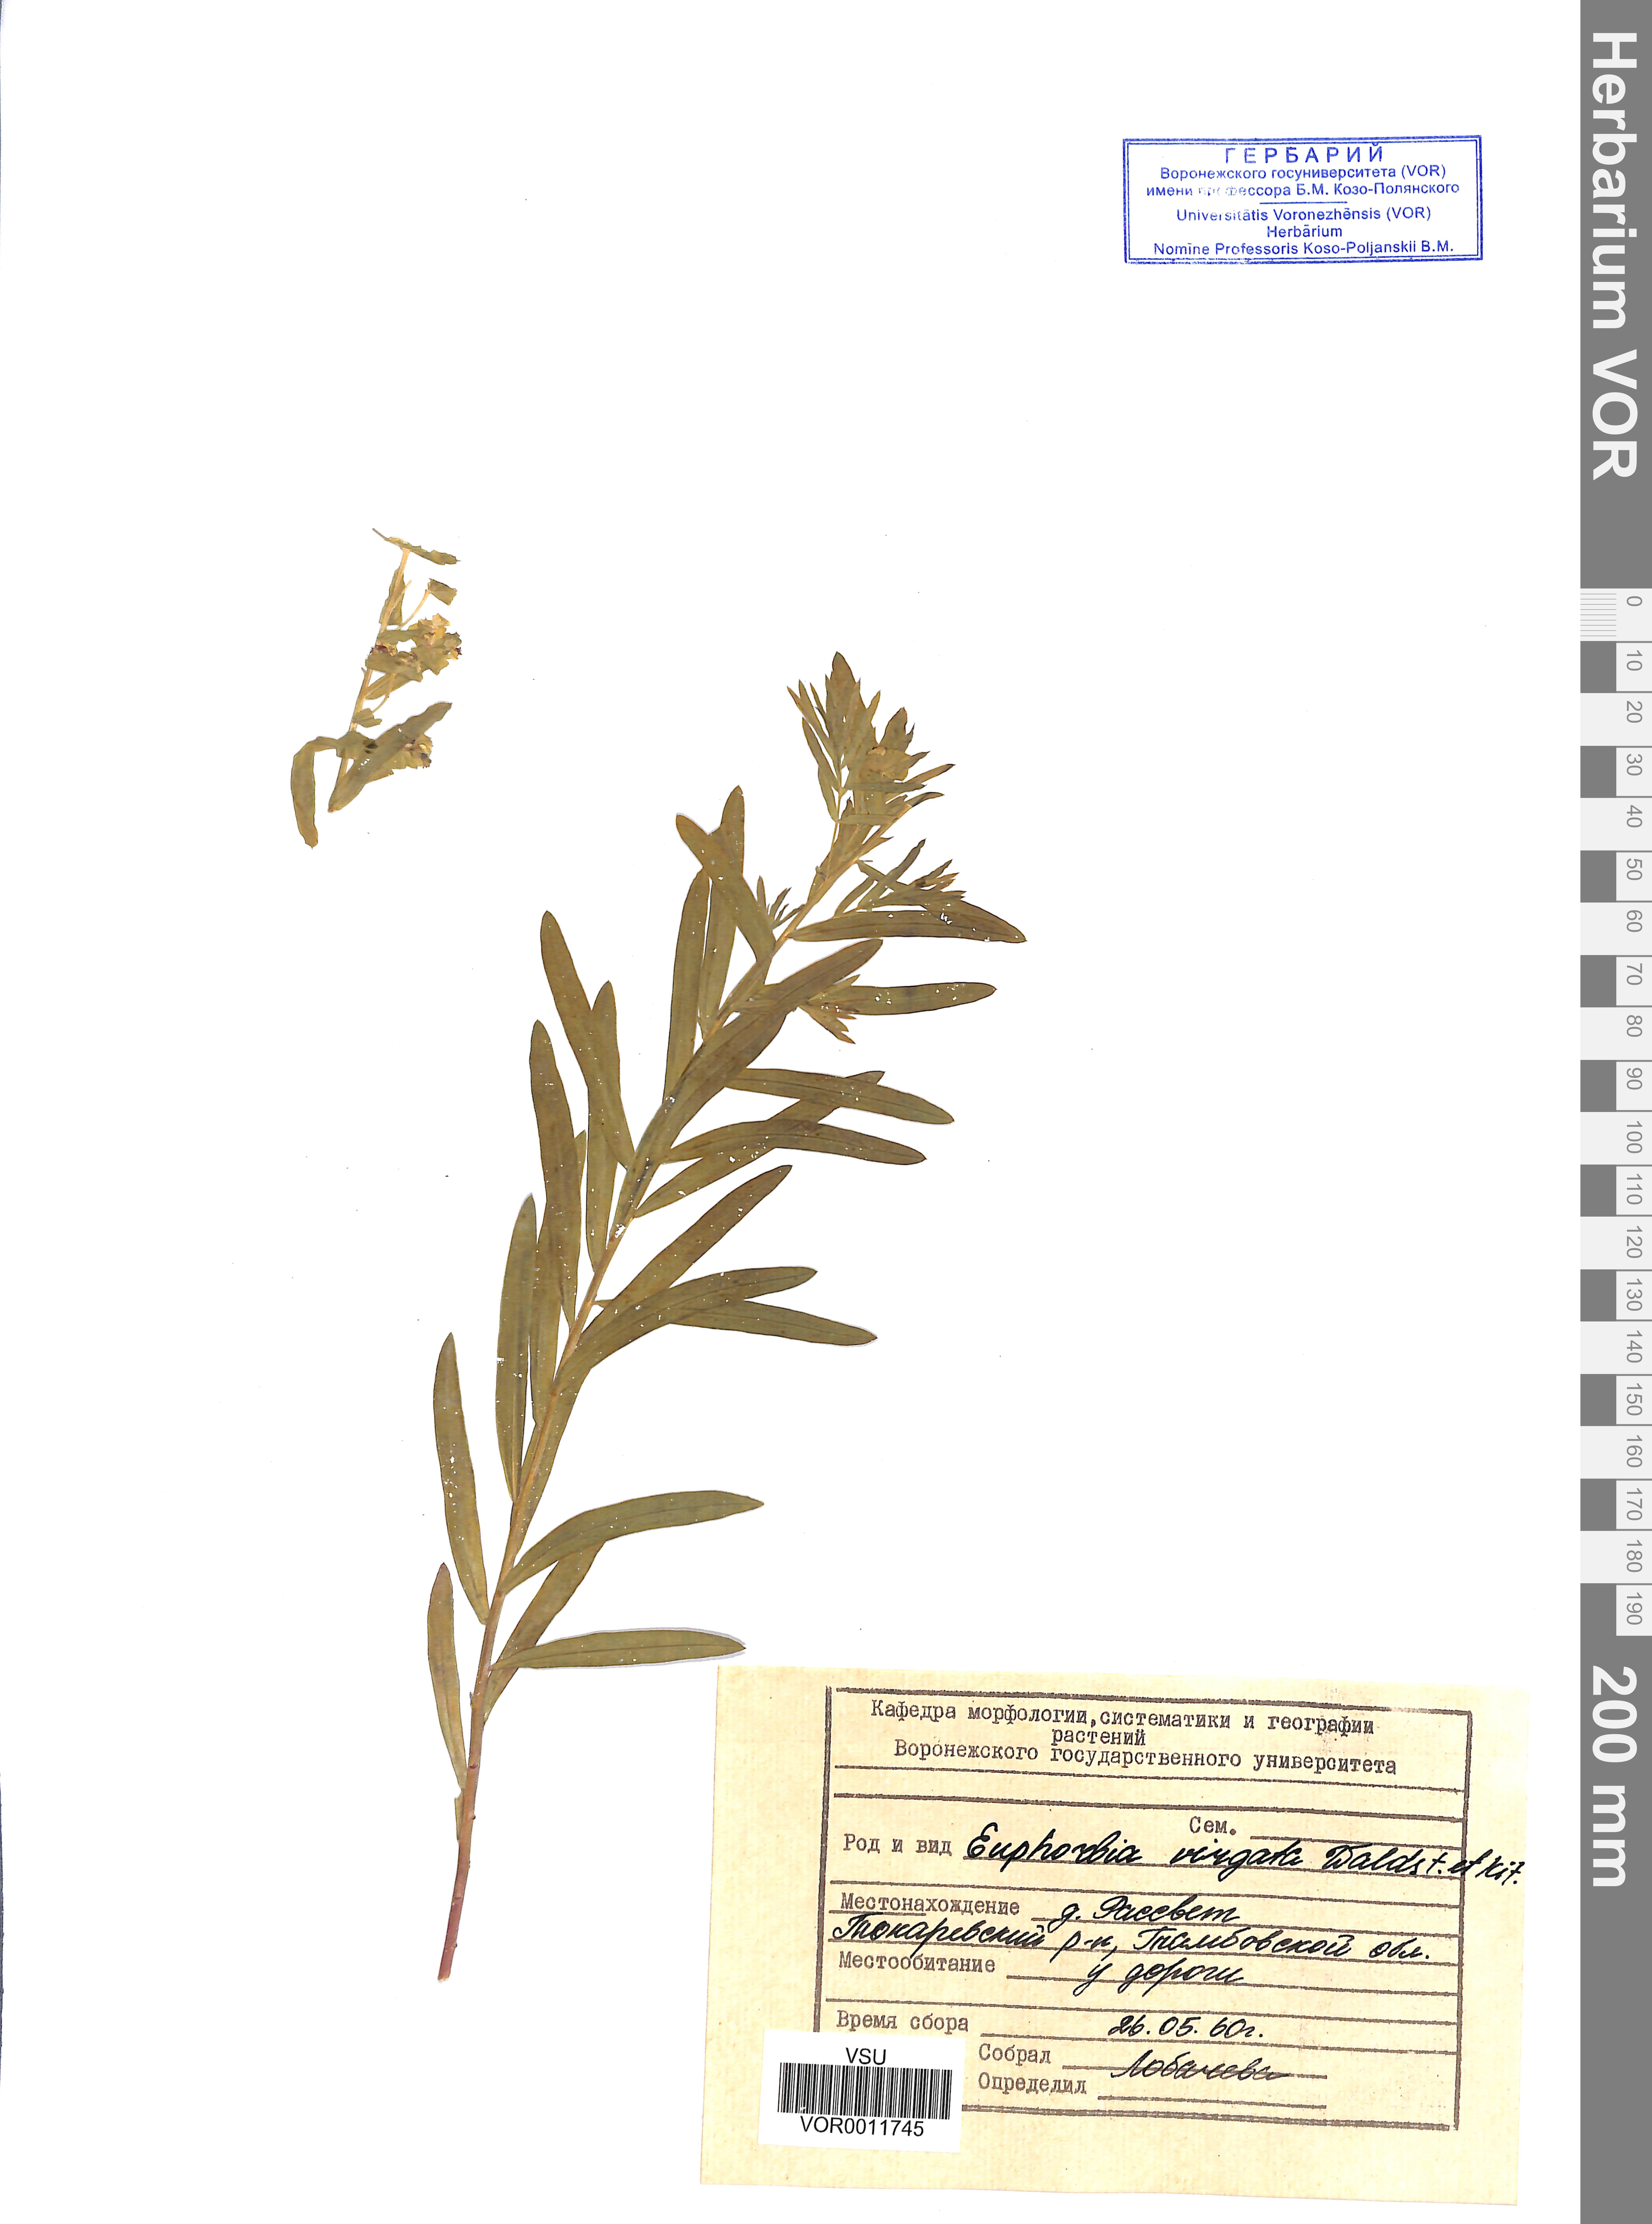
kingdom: Plantae
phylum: Tracheophyta
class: Magnoliopsida
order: Malpighiales
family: Euphorbiaceae
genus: Euphorbia
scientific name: Euphorbia virgata
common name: Leafy spurge
